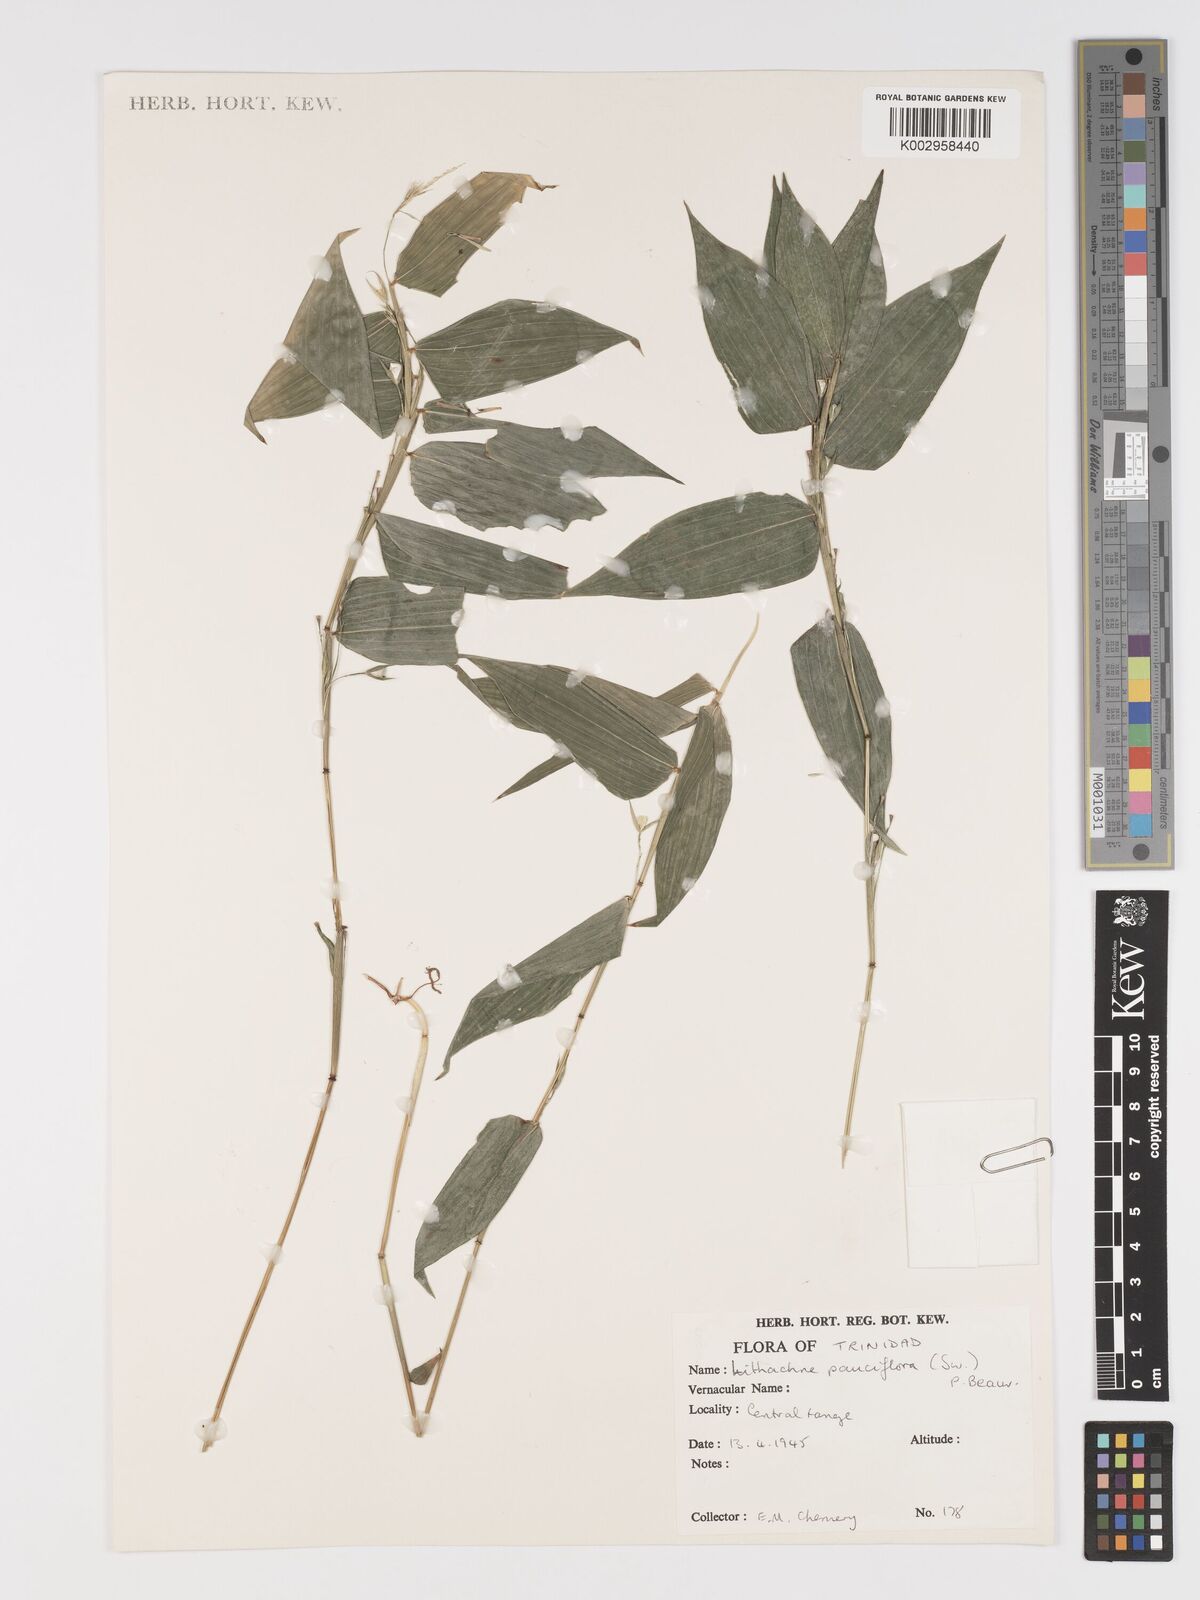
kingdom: Plantae
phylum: Tracheophyta
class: Liliopsida
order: Poales
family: Poaceae
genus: Lithachne
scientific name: Lithachne pauciflora
